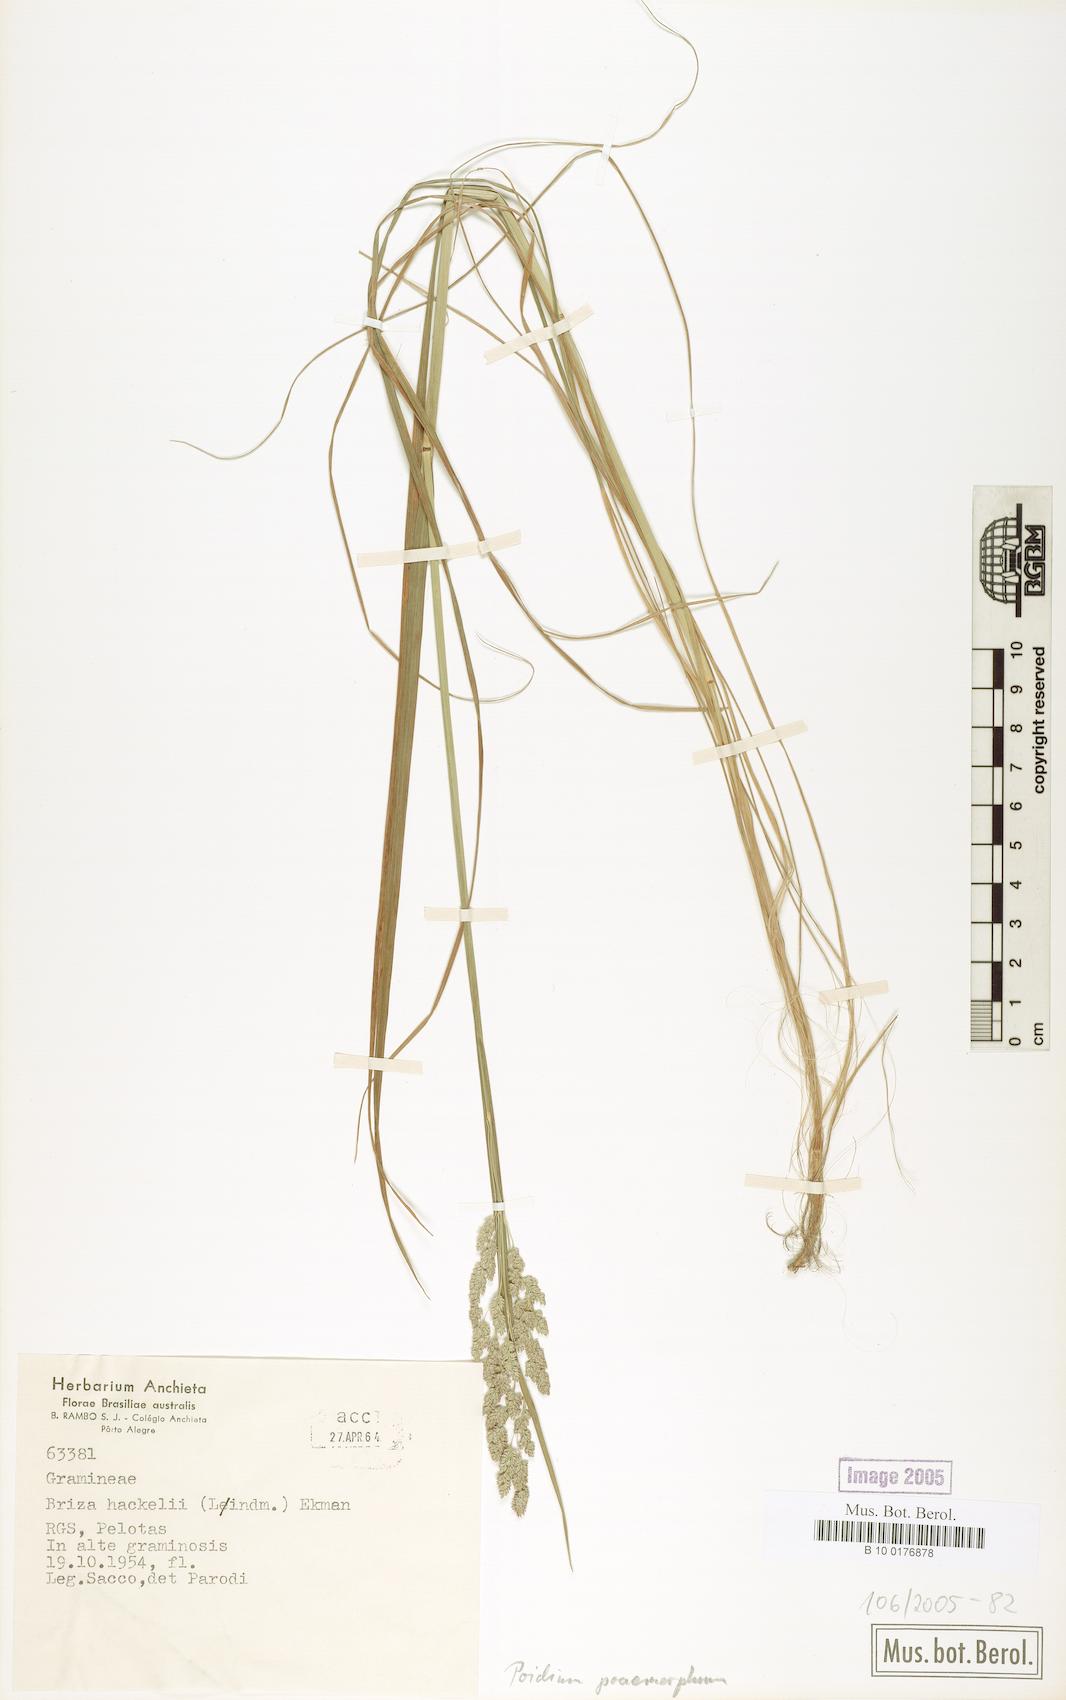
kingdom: Plantae
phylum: Tracheophyta
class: Liliopsida
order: Poales
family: Poaceae
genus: Chascolytrum
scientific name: Chascolytrum poomorphum
